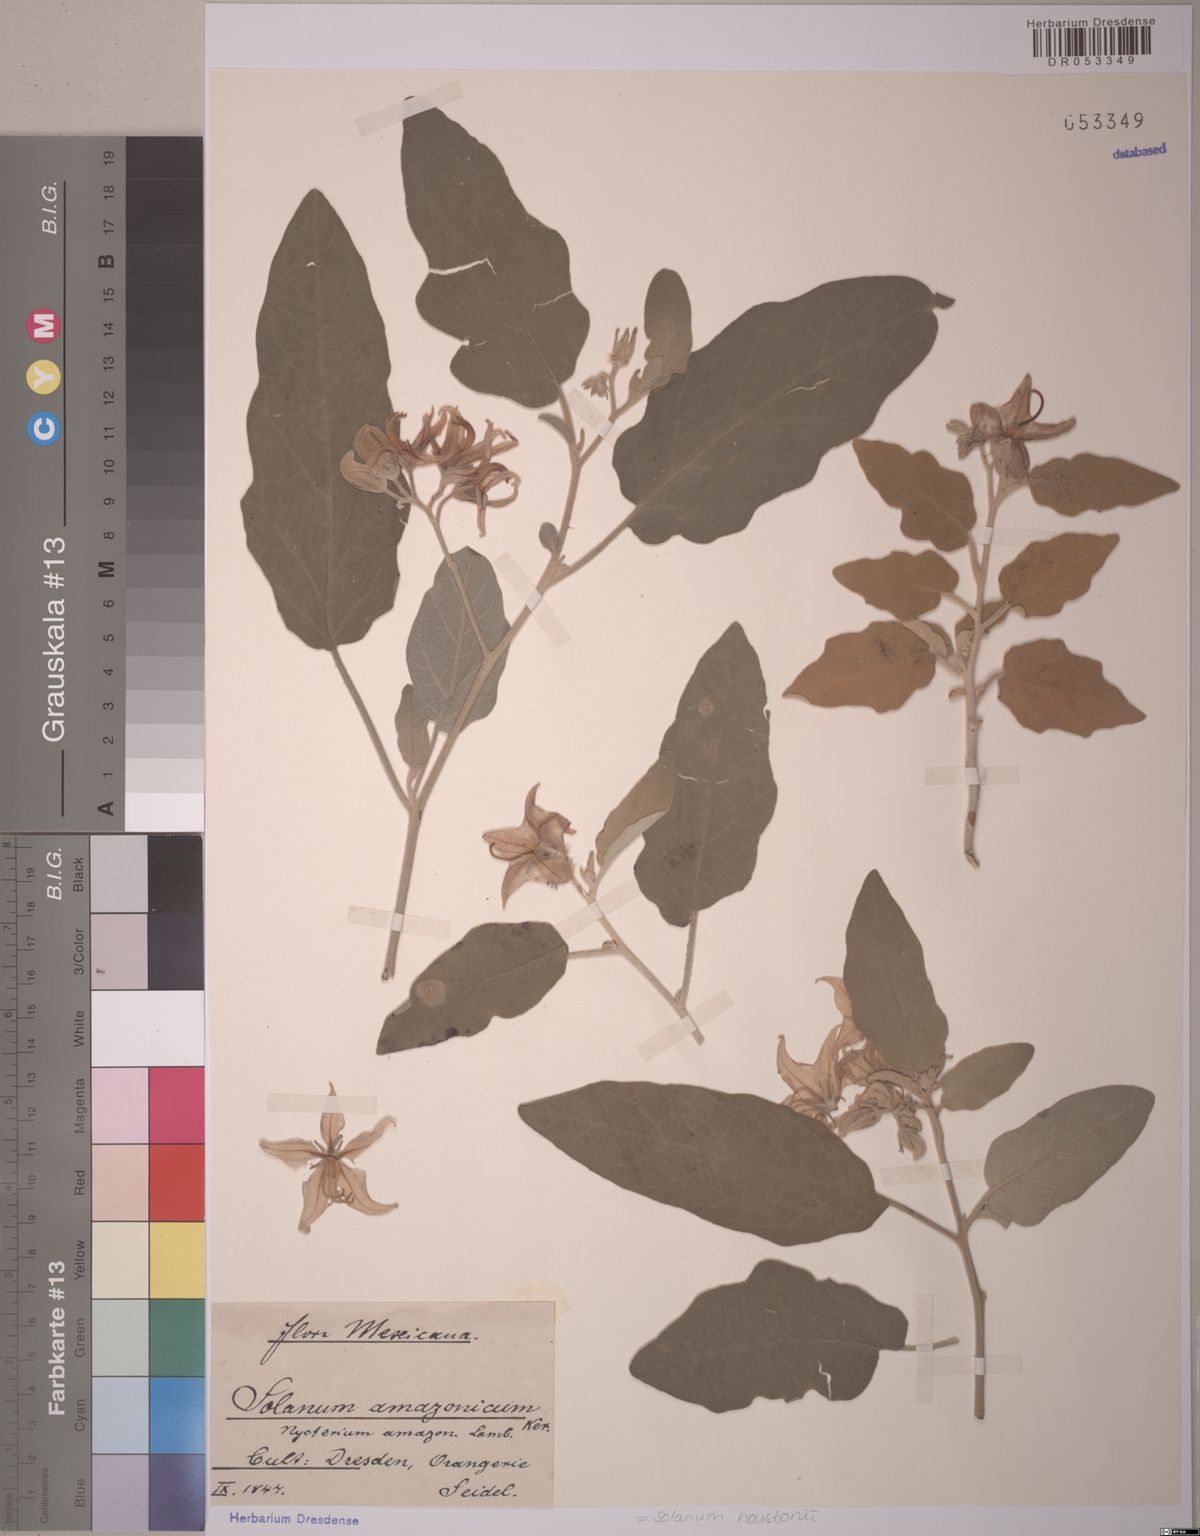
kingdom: Plantae
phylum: Tracheophyta
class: Magnoliopsida
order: Solanales
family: Solanaceae
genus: Solanum
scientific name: Solanum houstonii
